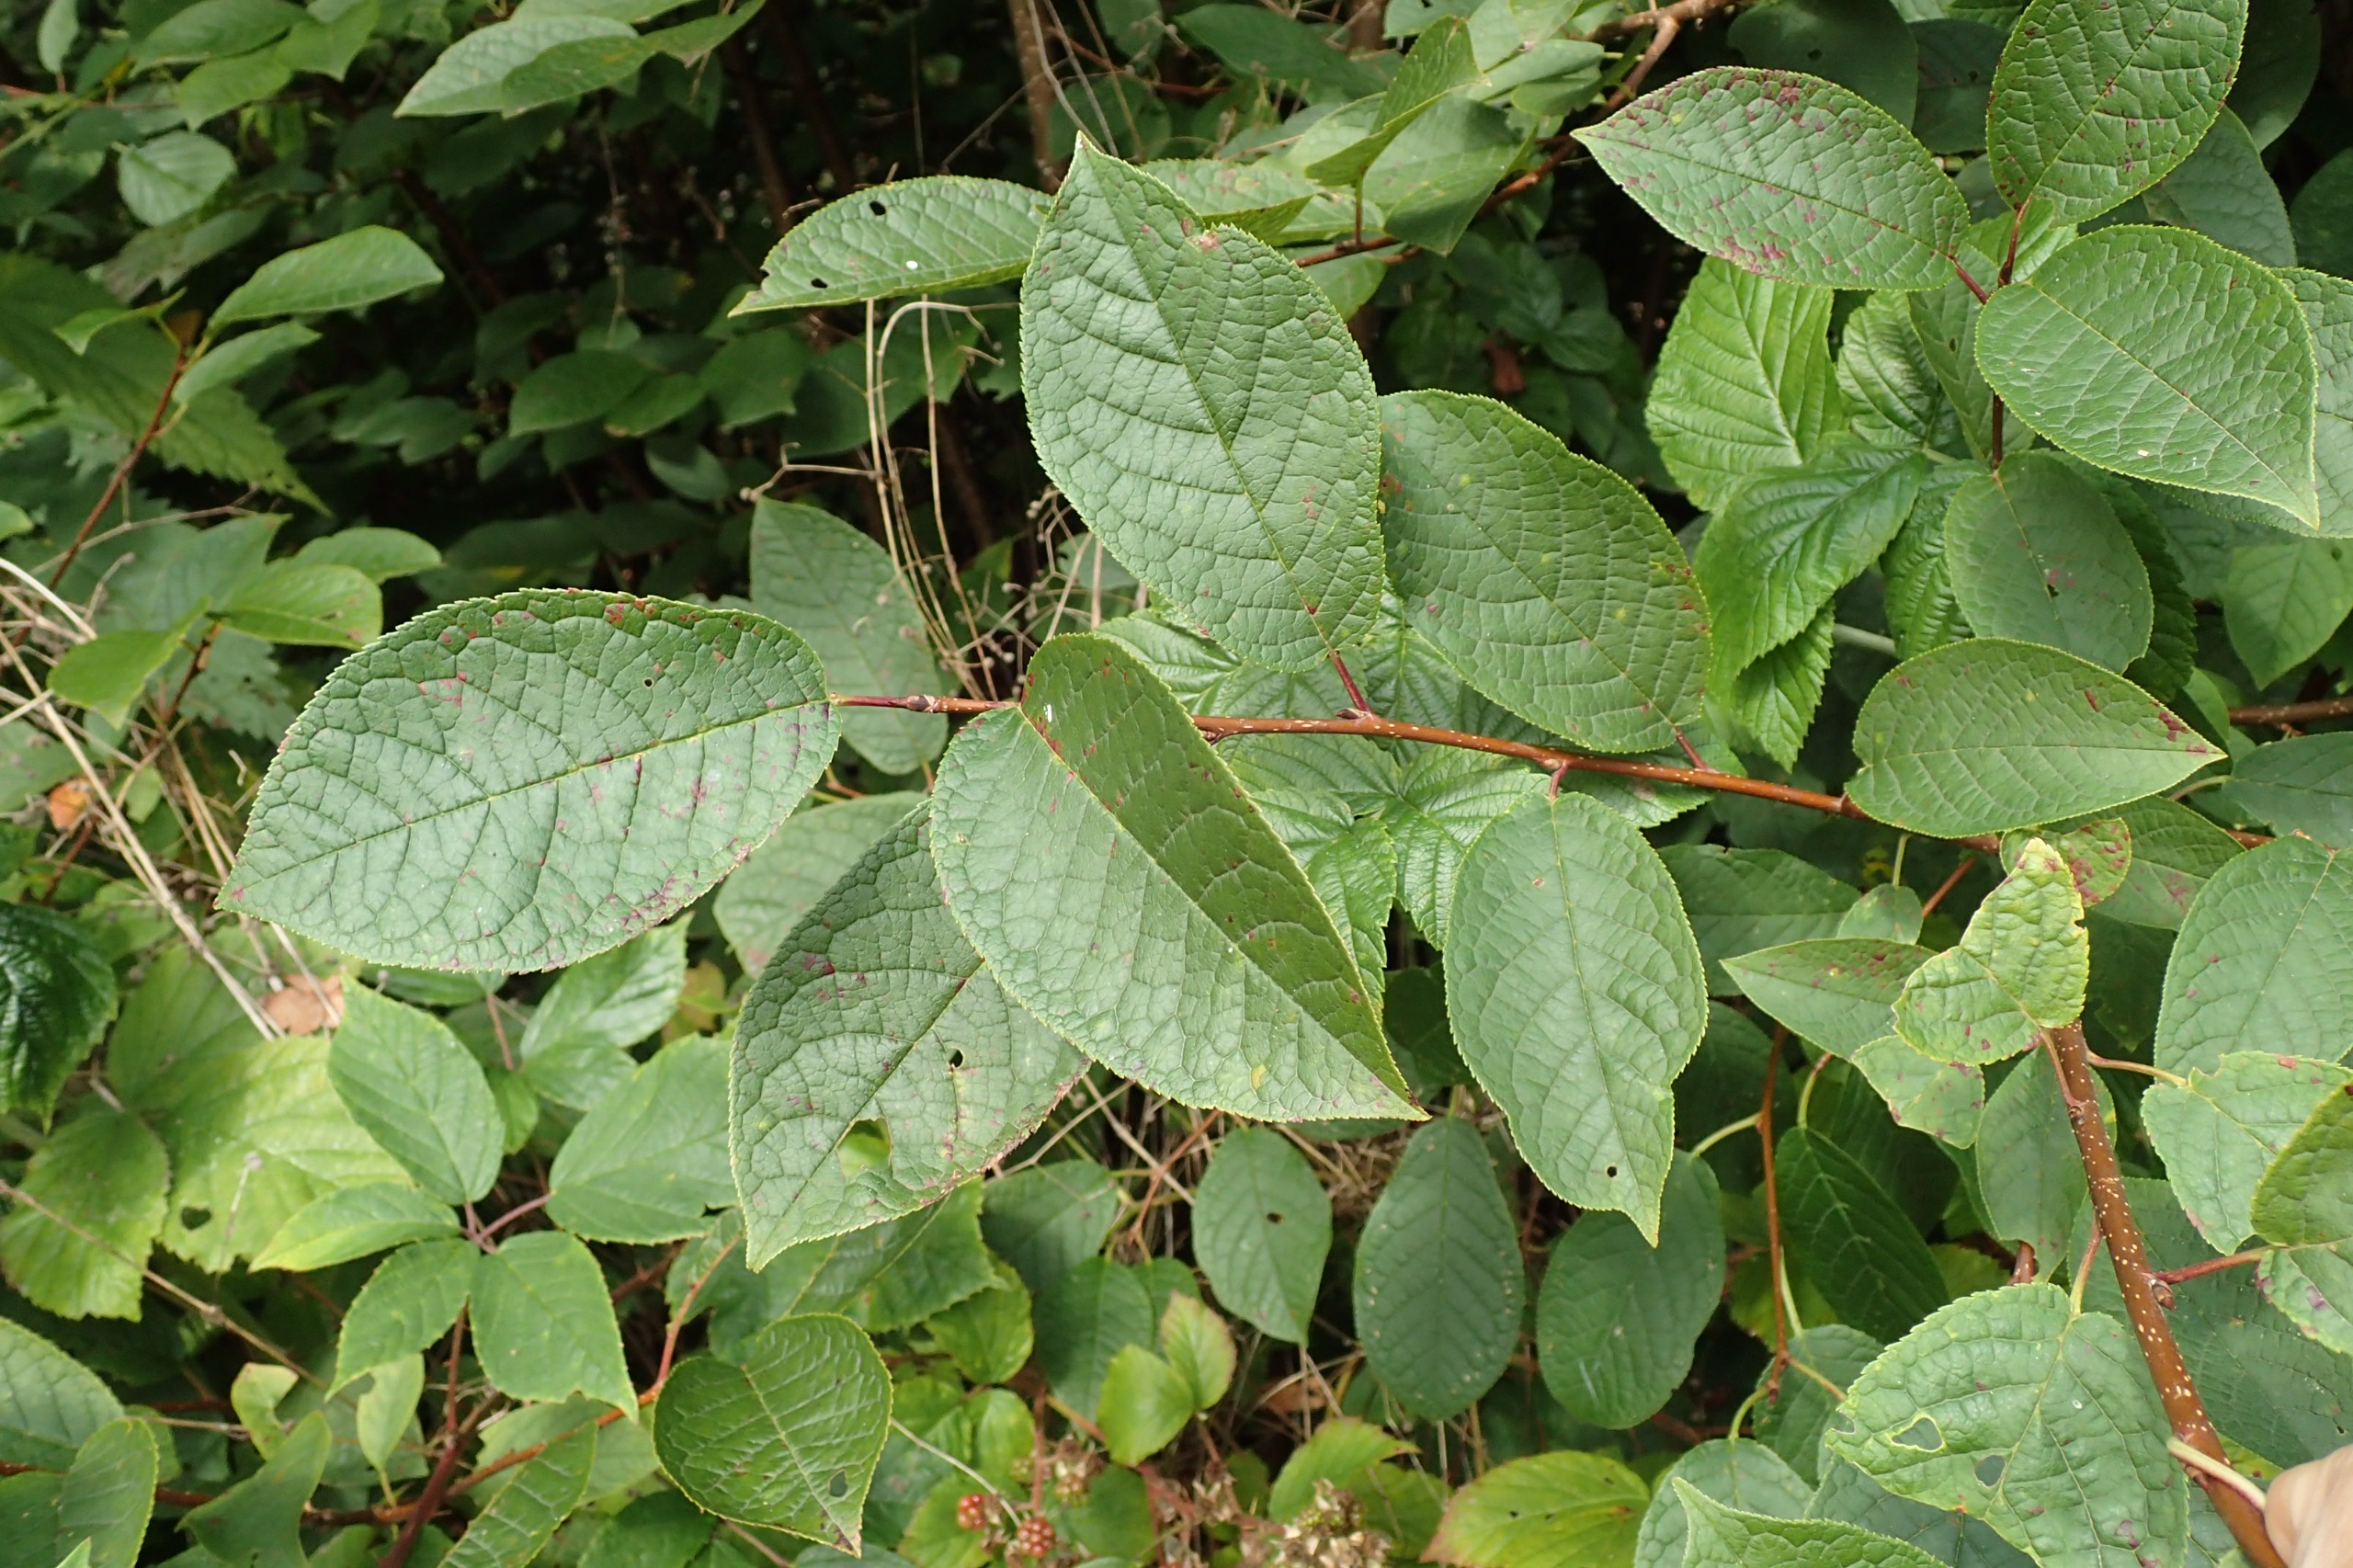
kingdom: Plantae
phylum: Tracheophyta
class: Magnoliopsida
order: Rosales
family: Rosaceae
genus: Prunus
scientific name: Prunus padus
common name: Almindelig hæg
